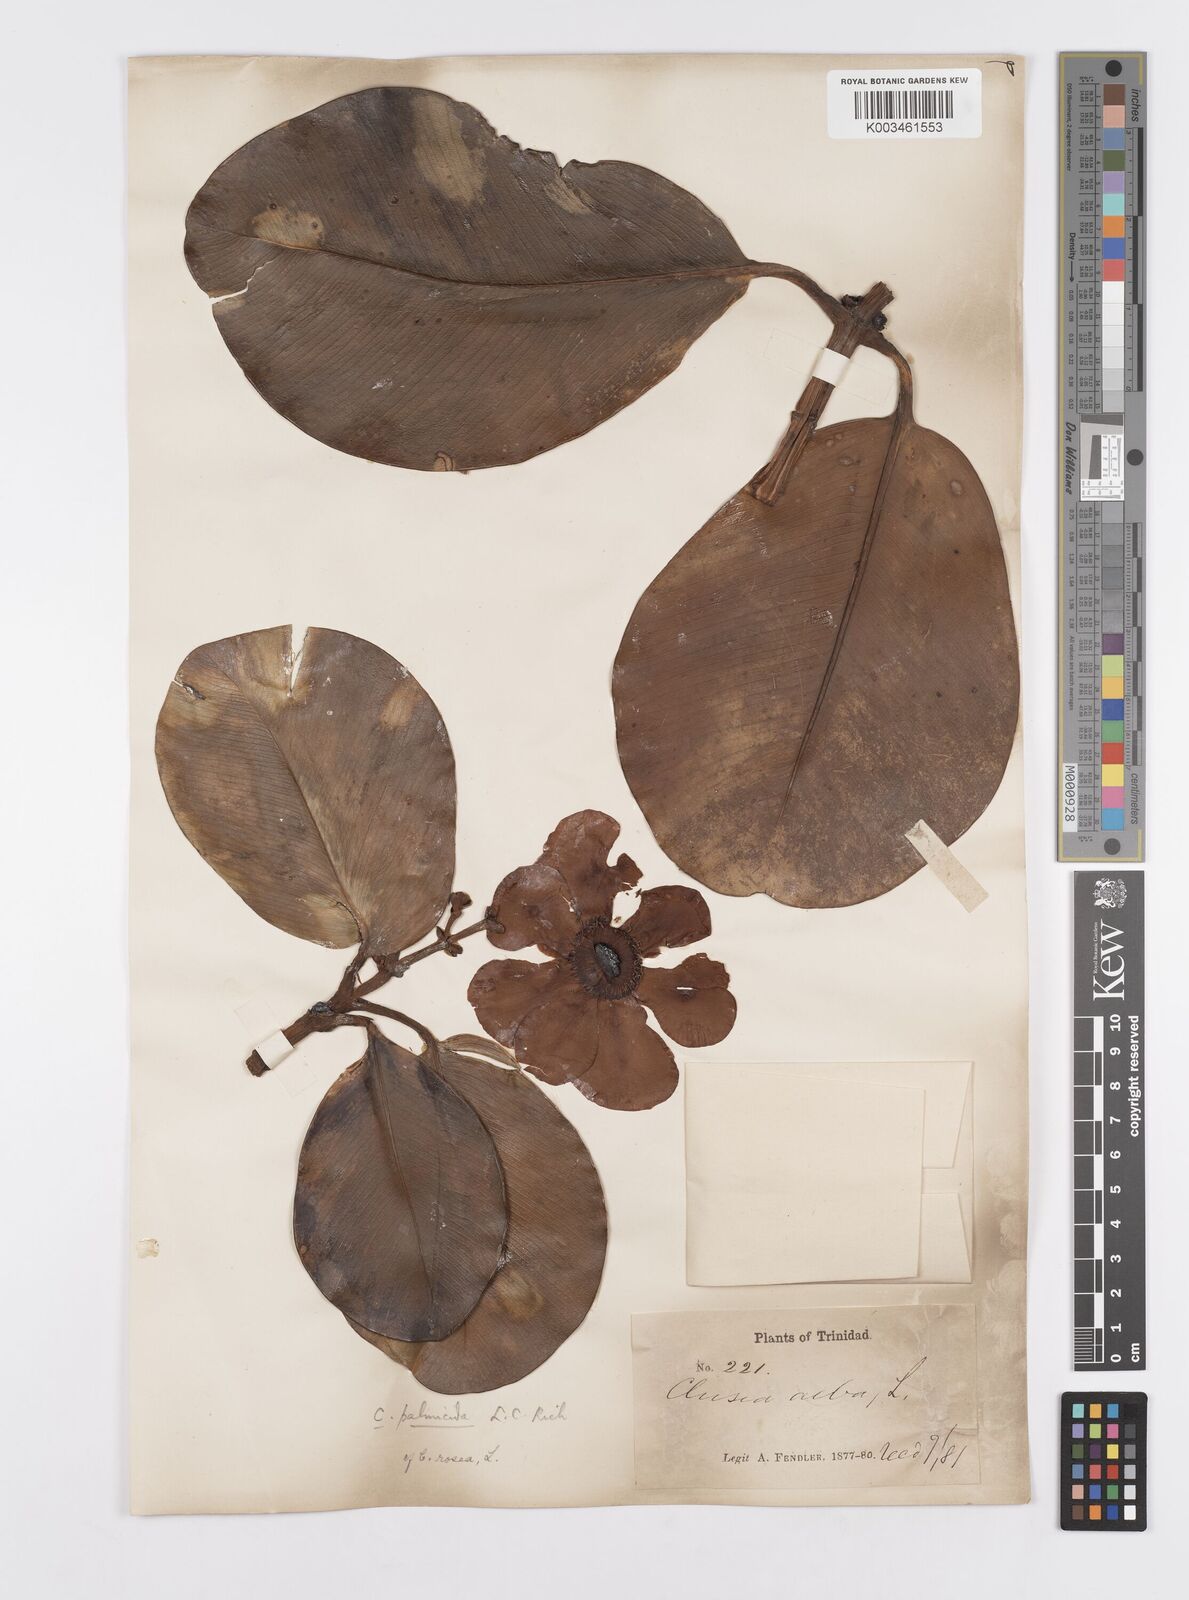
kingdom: Plantae
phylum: Tracheophyta
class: Magnoliopsida
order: Malpighiales
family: Clusiaceae
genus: Clusia
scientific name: Clusia palmicida
